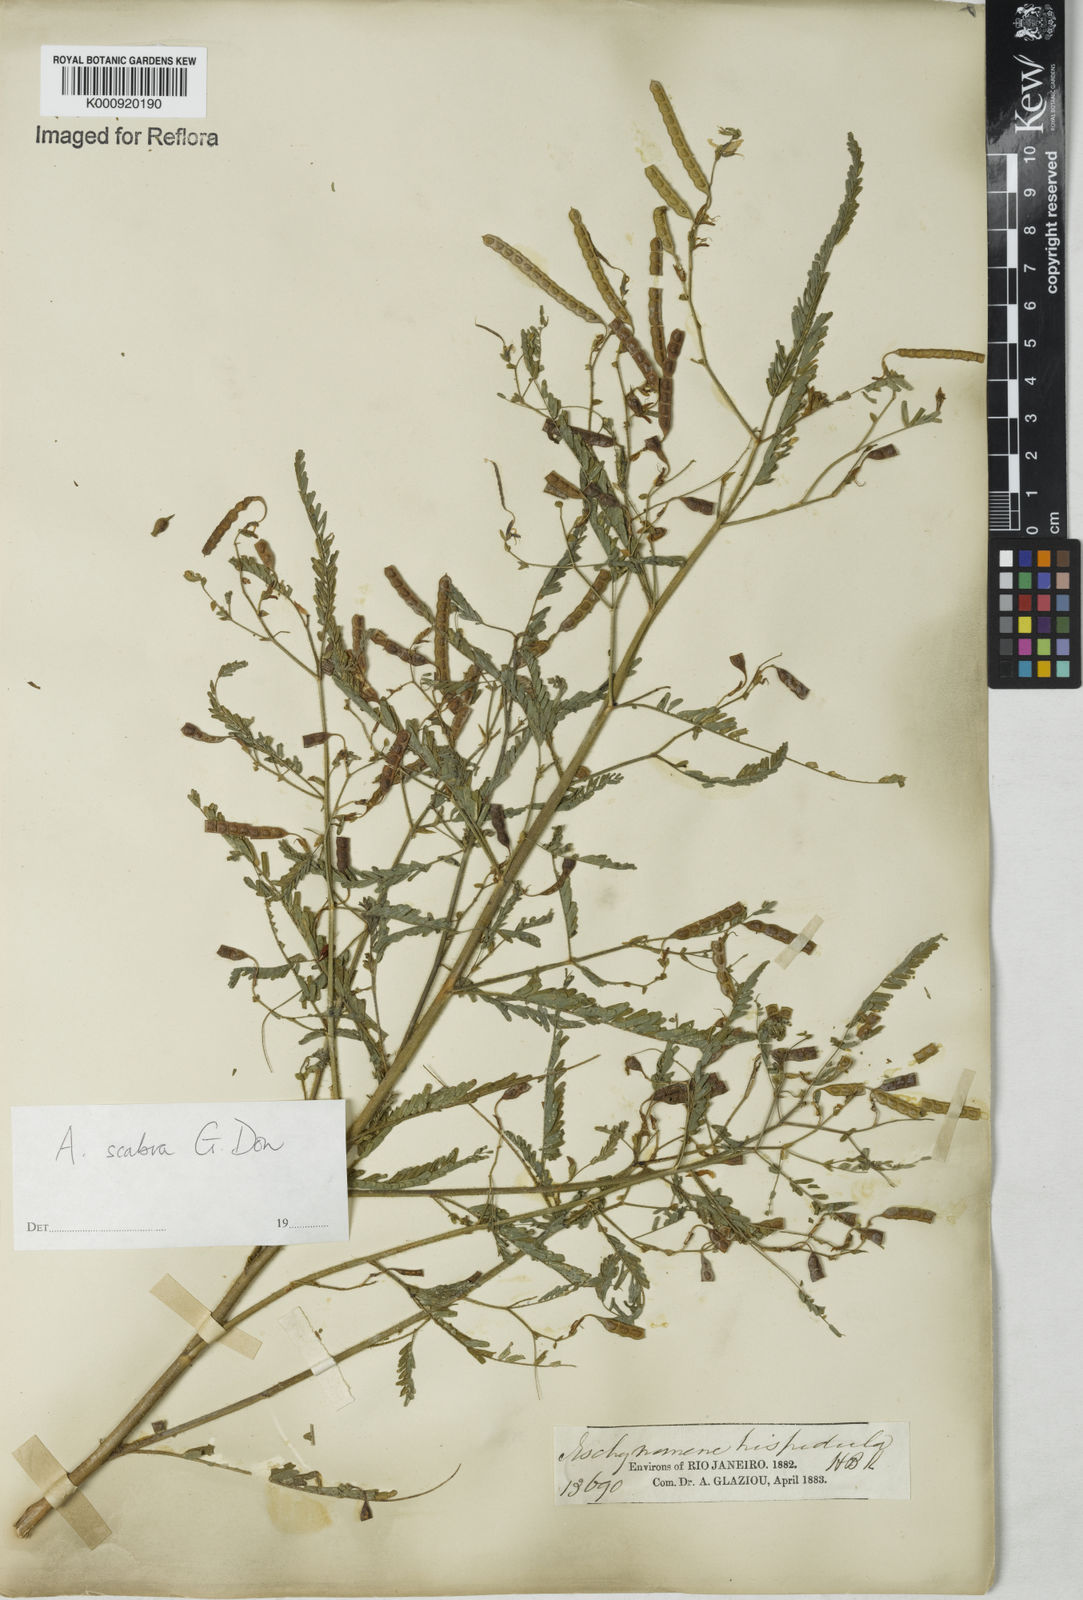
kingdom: Plantae
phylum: Tracheophyta
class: Magnoliopsida
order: Fabales
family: Fabaceae
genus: Aeschynomene
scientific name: Aeschynomene scabra
